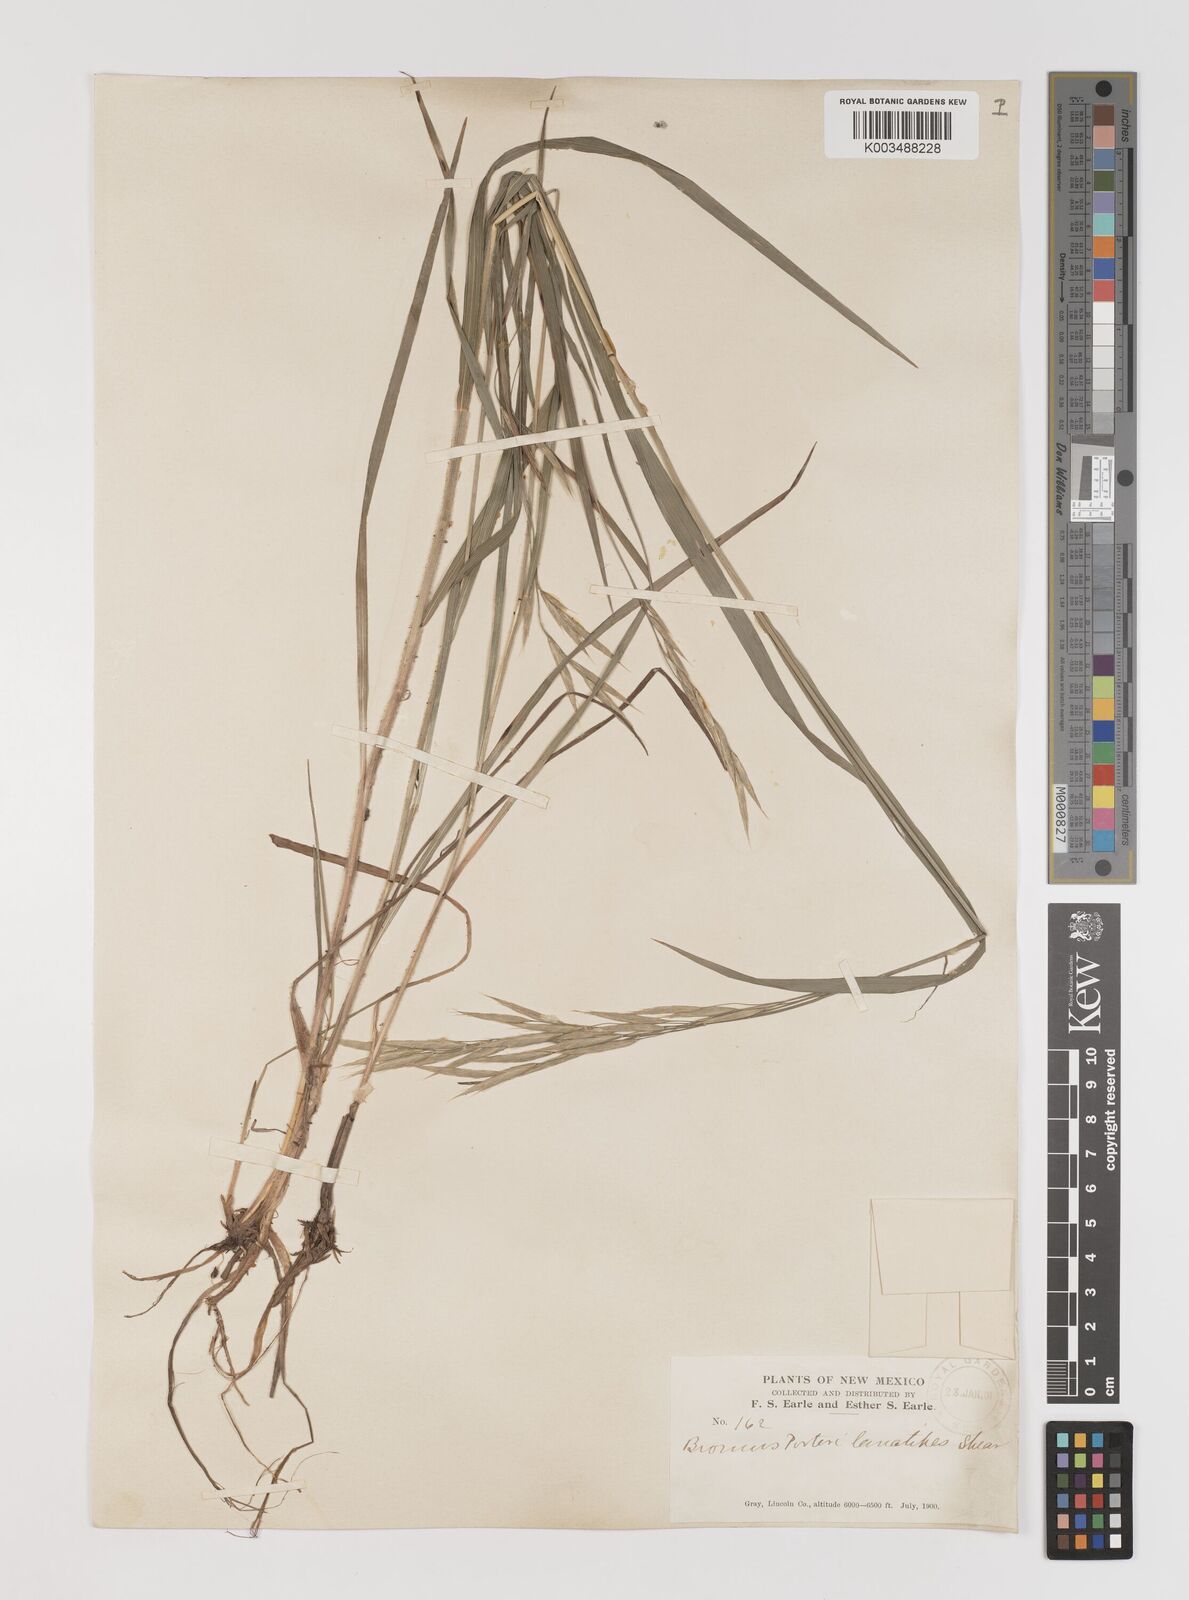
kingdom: Plantae
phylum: Tracheophyta
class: Liliopsida
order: Poales
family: Poaceae
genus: Bromus
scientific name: Bromus porteri
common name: Nodding brome
